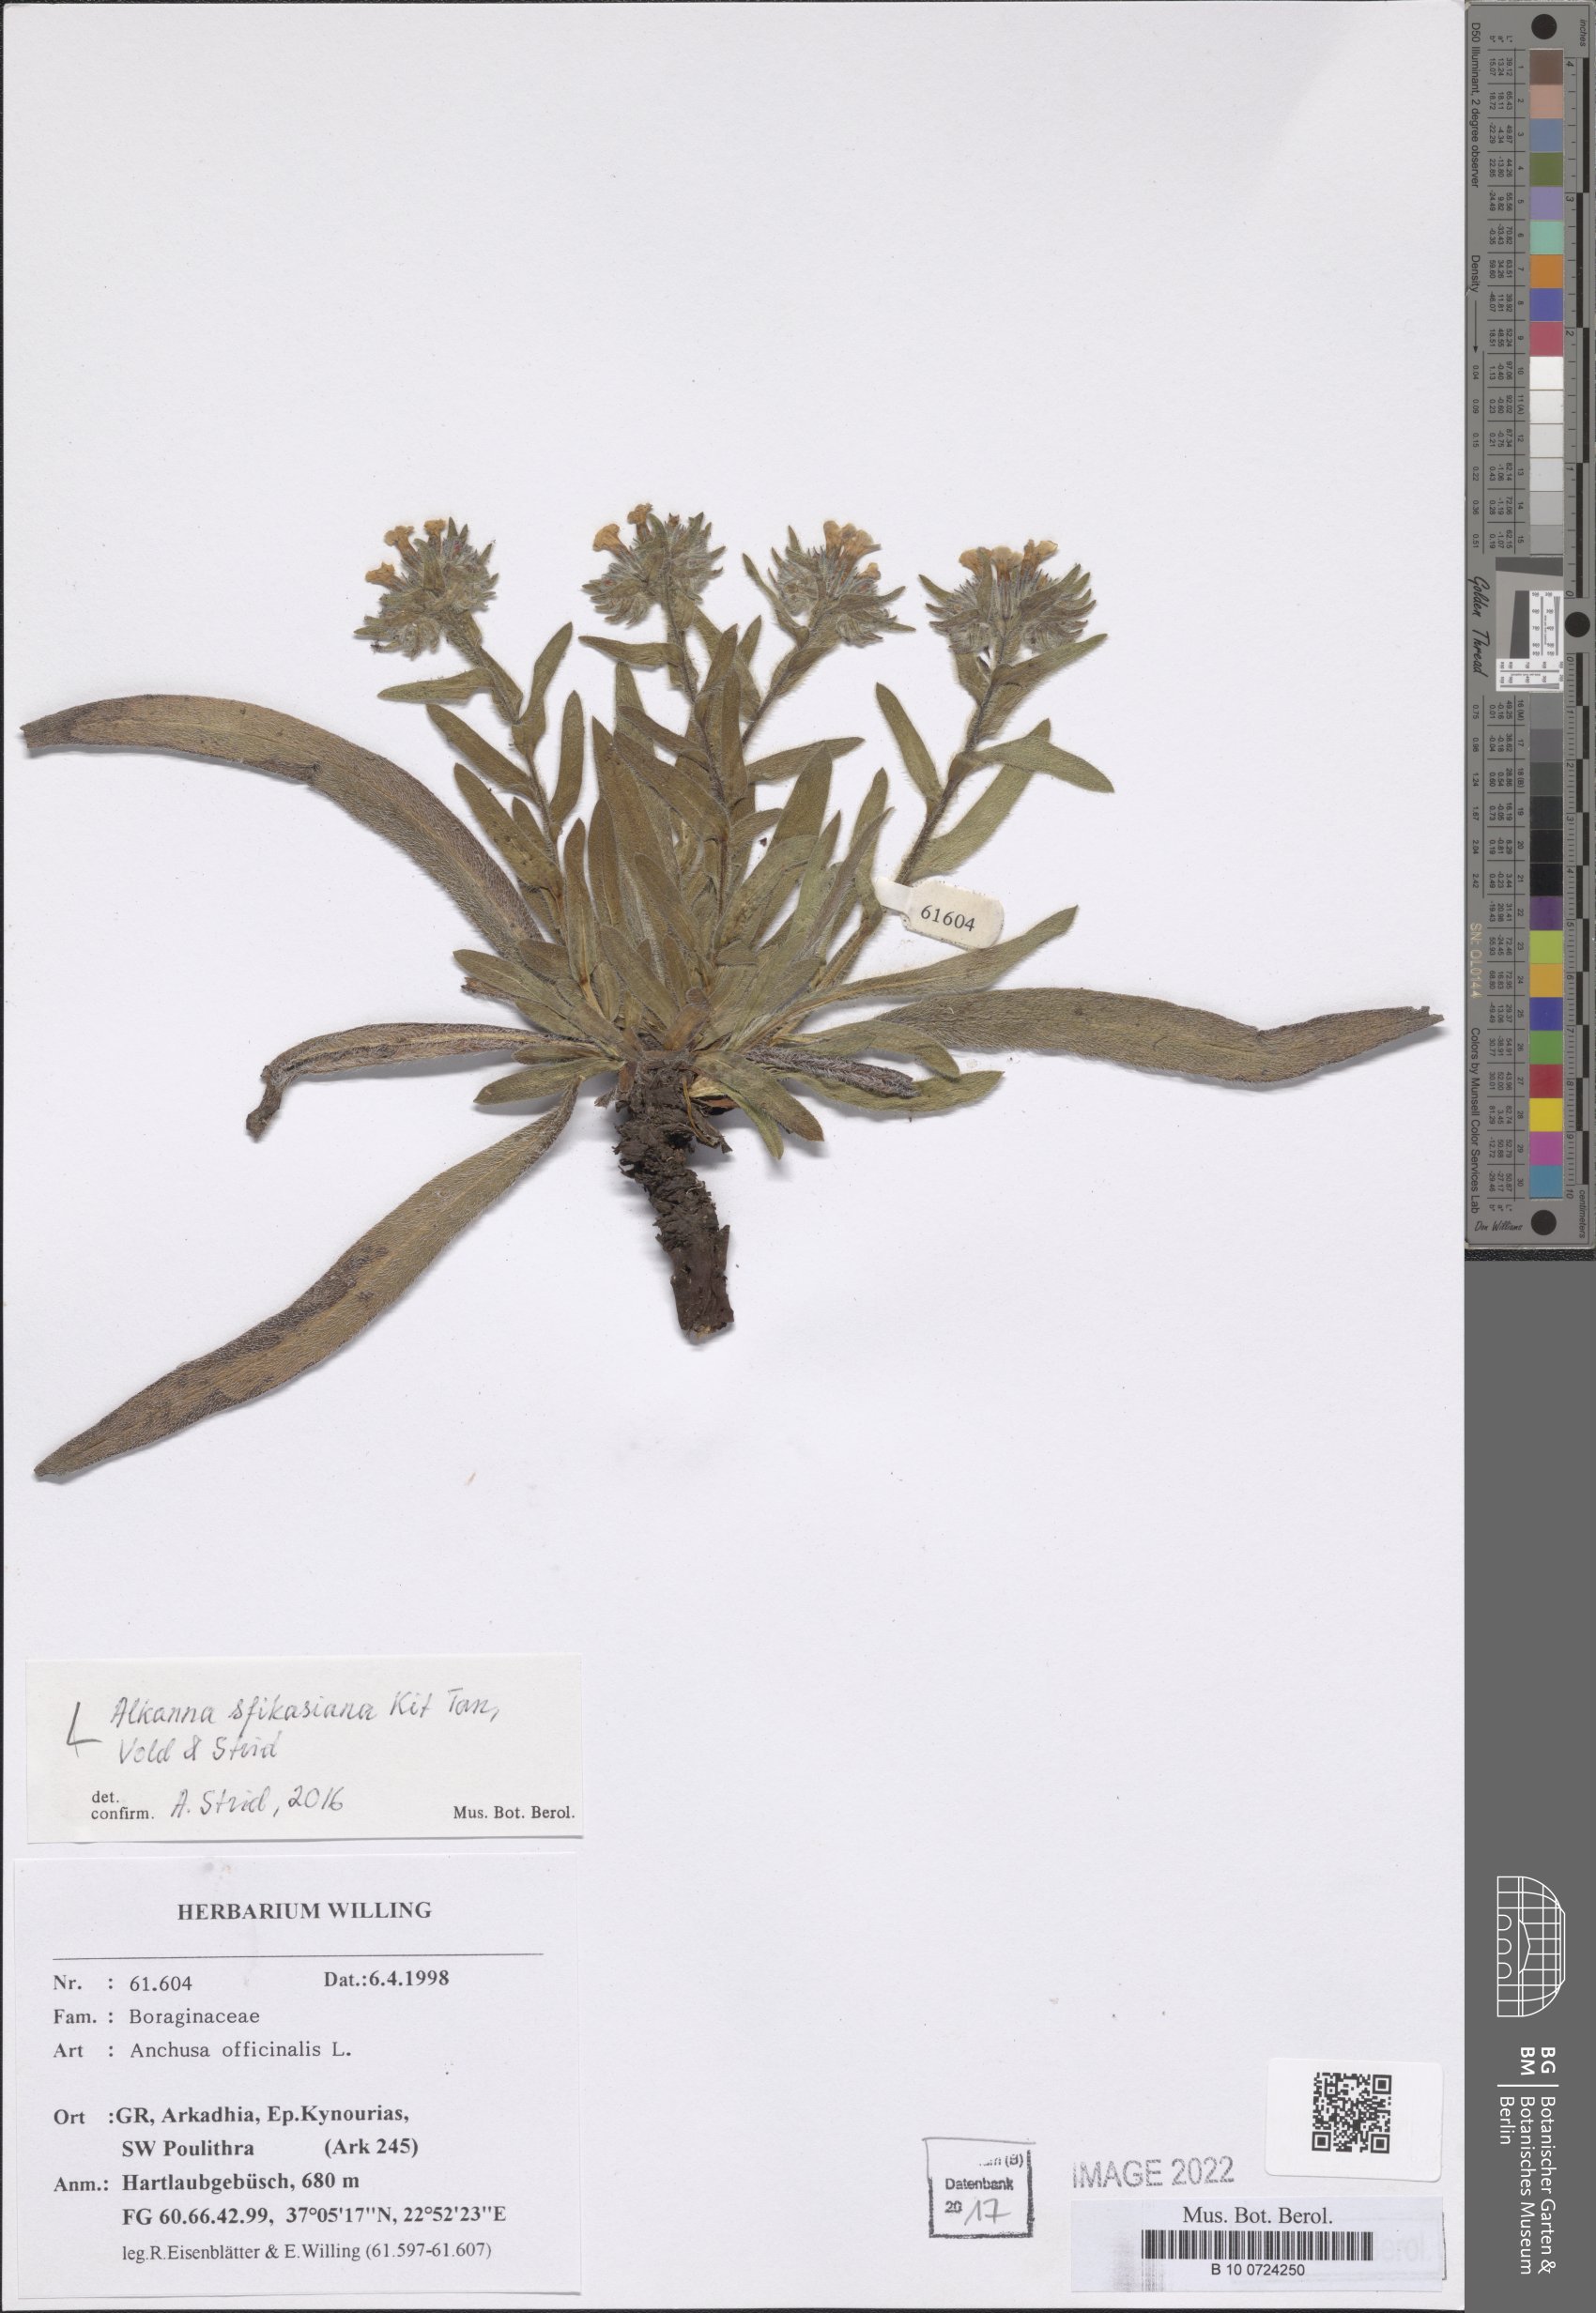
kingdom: Plantae
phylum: Tracheophyta
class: Magnoliopsida
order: Boraginales
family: Boraginaceae
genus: Alkanna
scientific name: Alkanna sfikasiana
